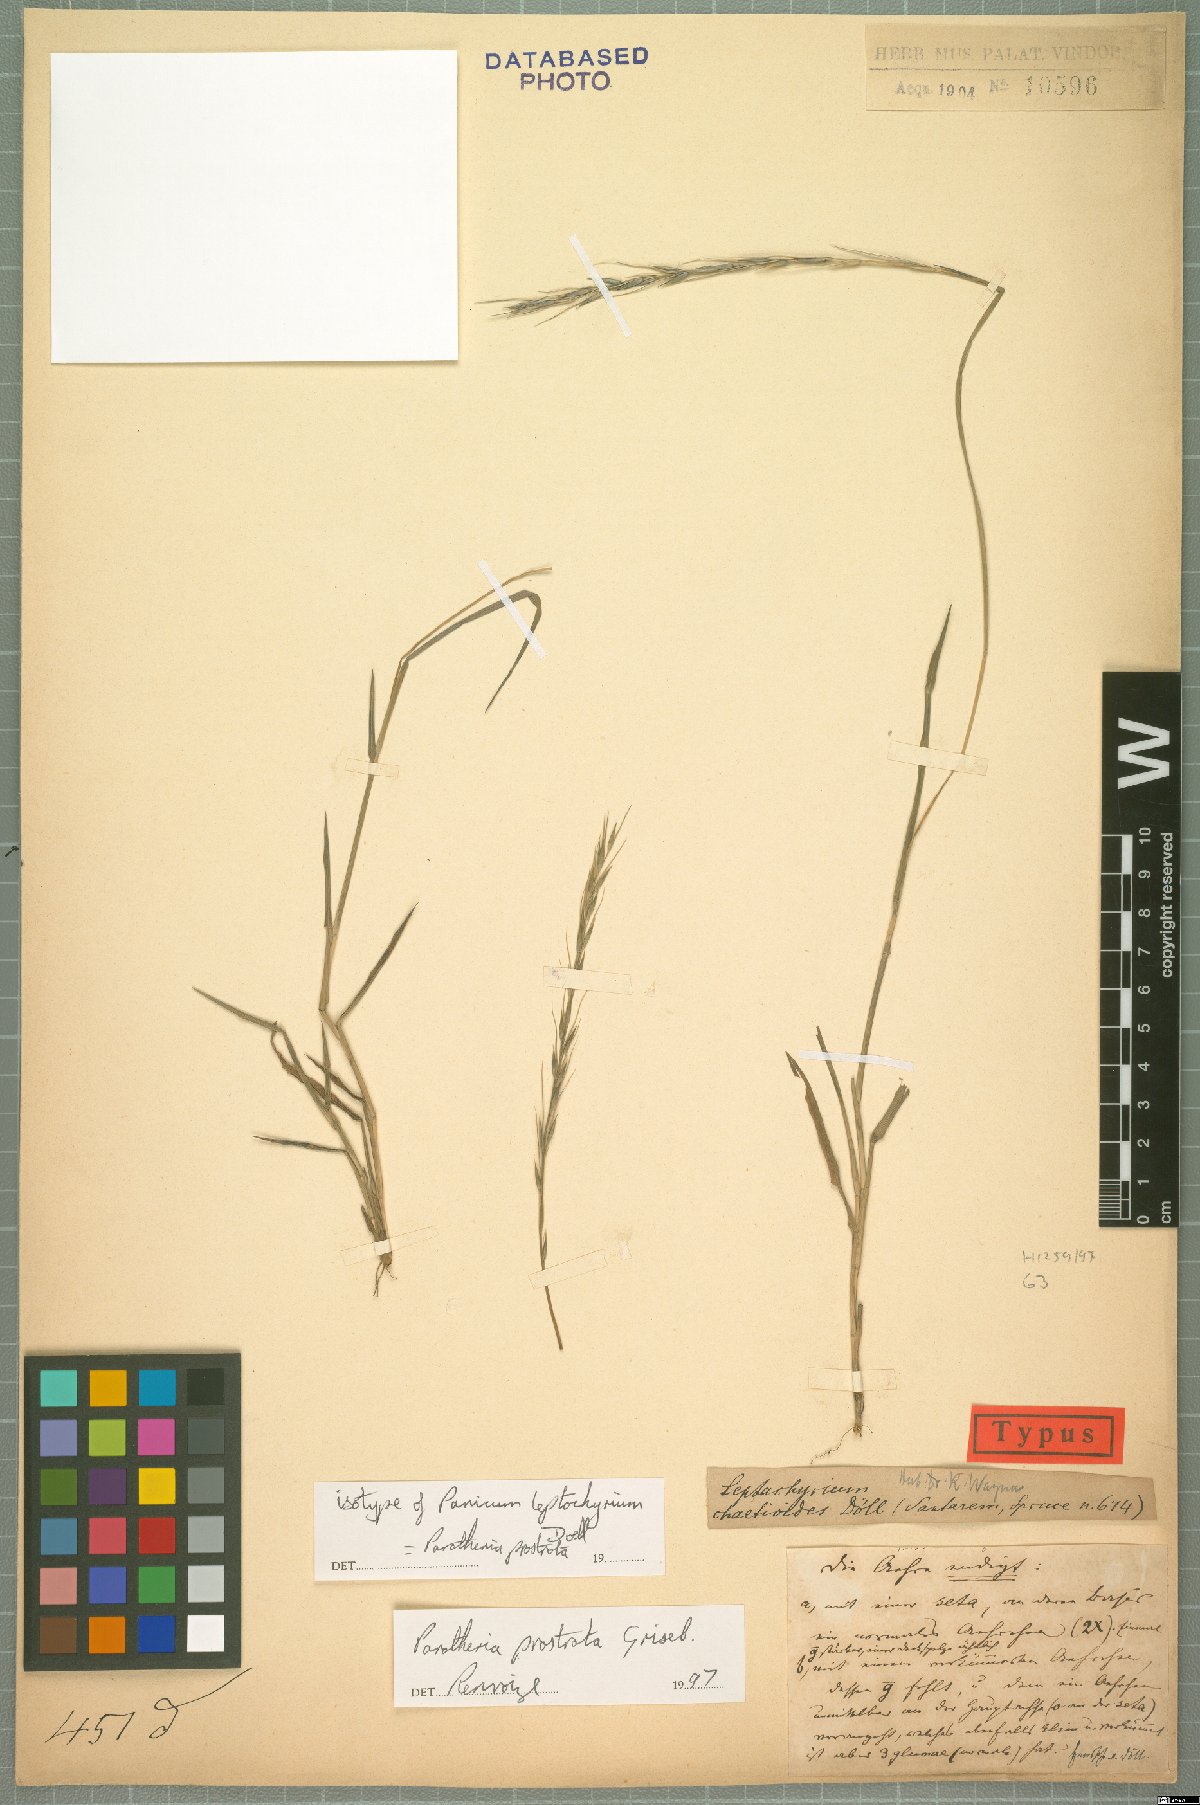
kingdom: Plantae
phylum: Tracheophyta
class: Liliopsida
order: Poales
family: Poaceae
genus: Paratheria
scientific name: Paratheria prostrata
